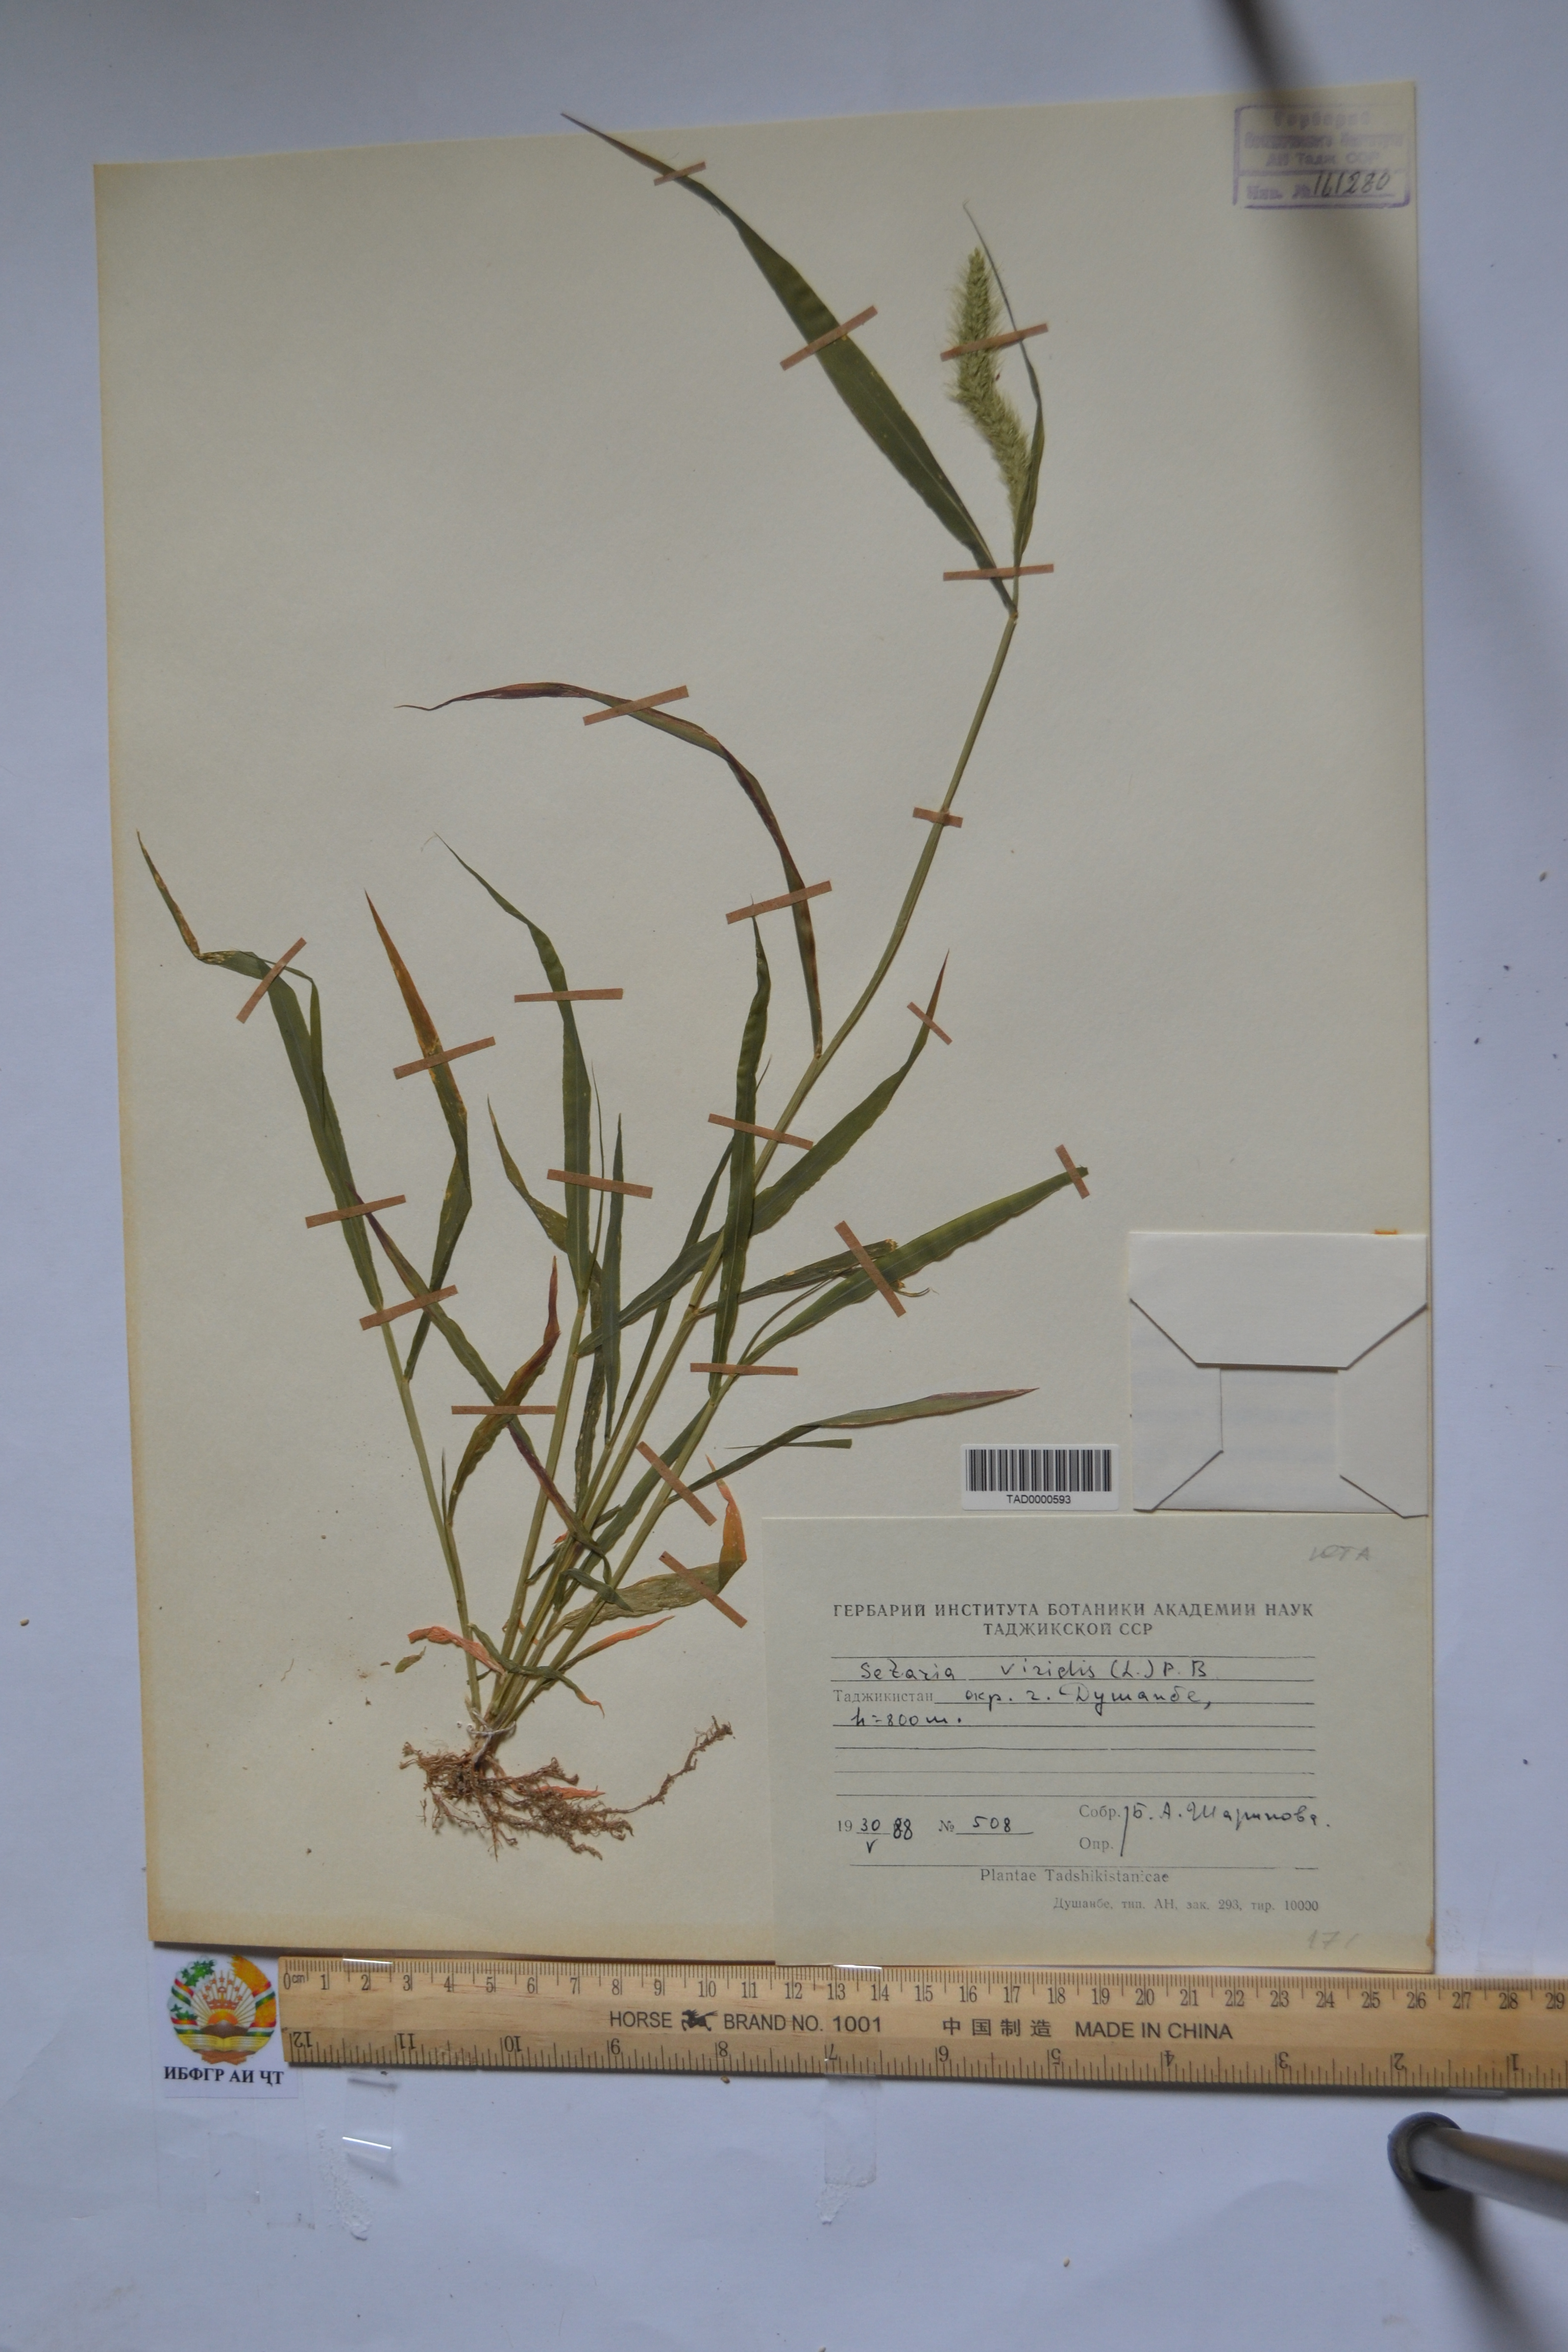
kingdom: Plantae
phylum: Tracheophyta
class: Liliopsida
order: Poales
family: Poaceae
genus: Setaria
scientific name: Setaria viridis
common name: Green bristlegrass
